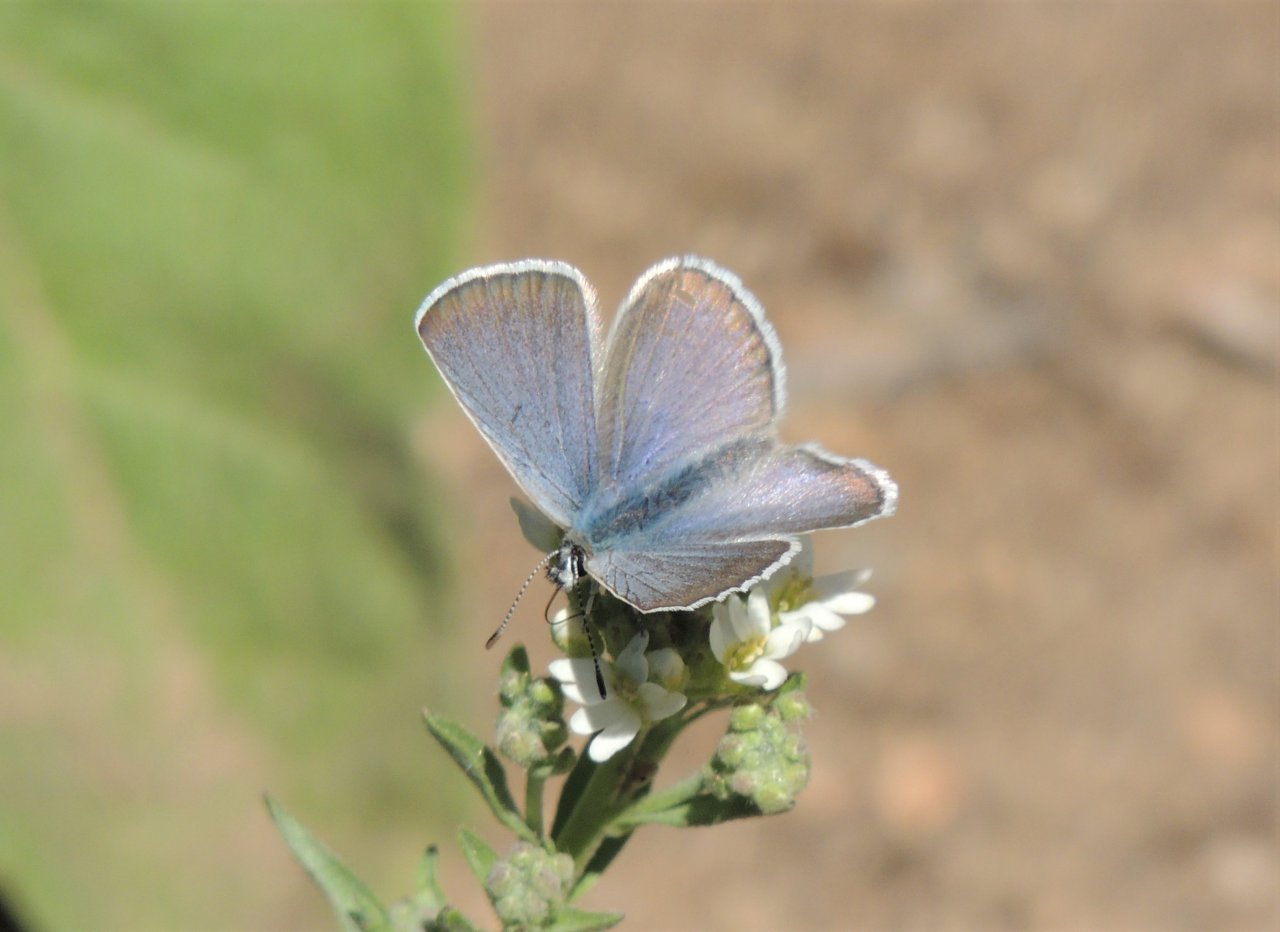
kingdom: Animalia
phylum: Arthropoda
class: Insecta
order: Lepidoptera
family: Lycaenidae
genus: Icaricia
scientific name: Icaricia icarioides
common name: Boisduval's Blue
